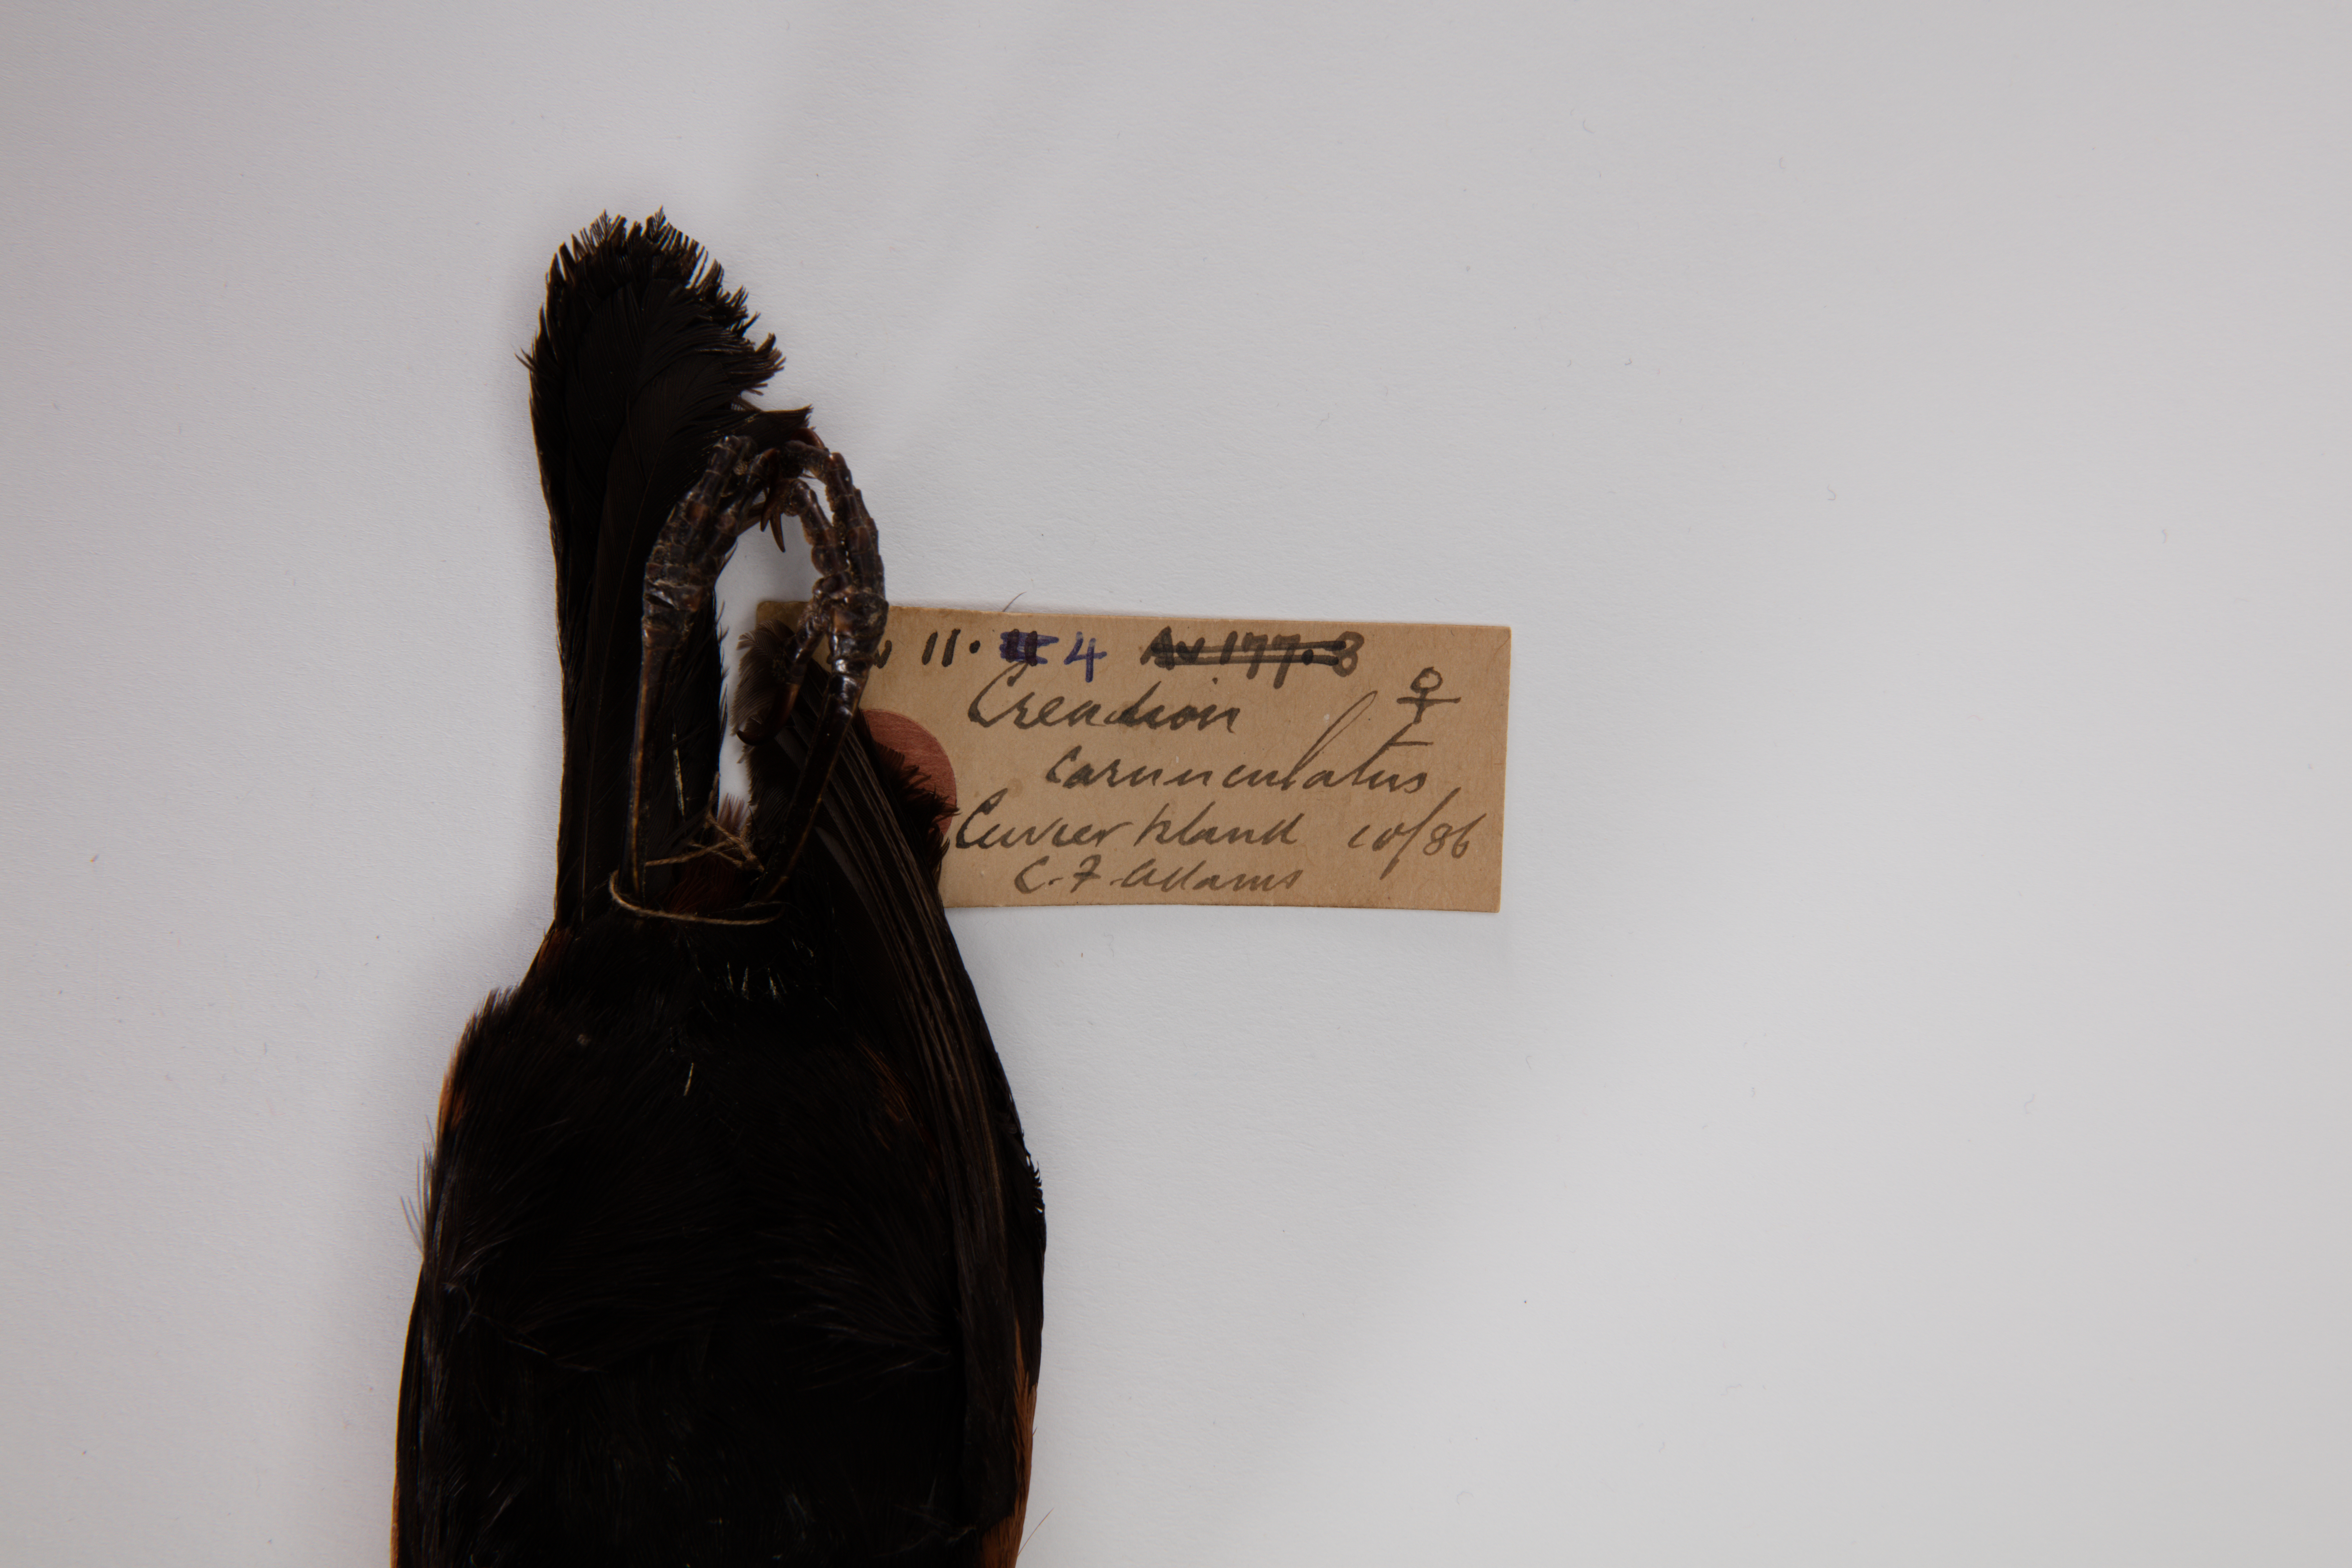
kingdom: Animalia
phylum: Chordata
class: Aves
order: Passeriformes
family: Callaeatidae
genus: Philesturnus
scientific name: Philesturnus carunculatus
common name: South island saddleback
